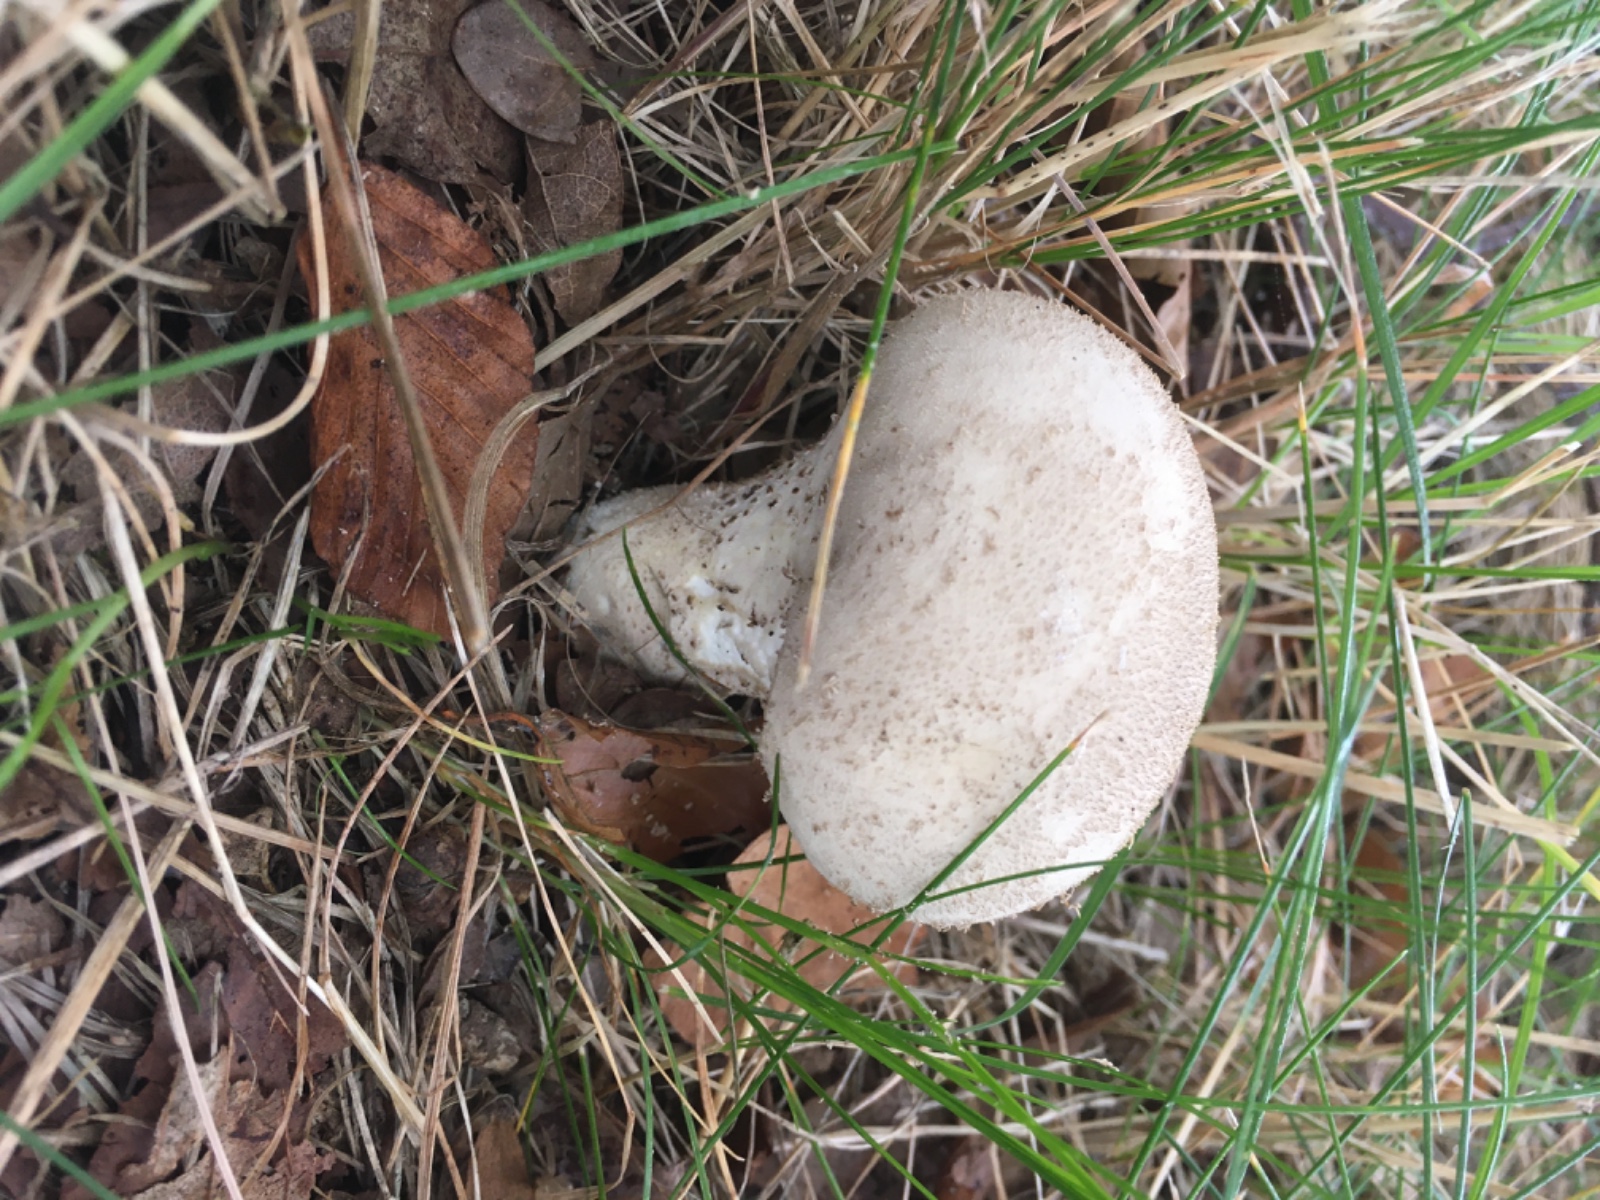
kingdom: Fungi
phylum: Basidiomycota
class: Agaricomycetes
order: Agaricales
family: Lycoperdaceae
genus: Lycoperdon
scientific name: Lycoperdon excipuliforme
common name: højstokket støvbold
